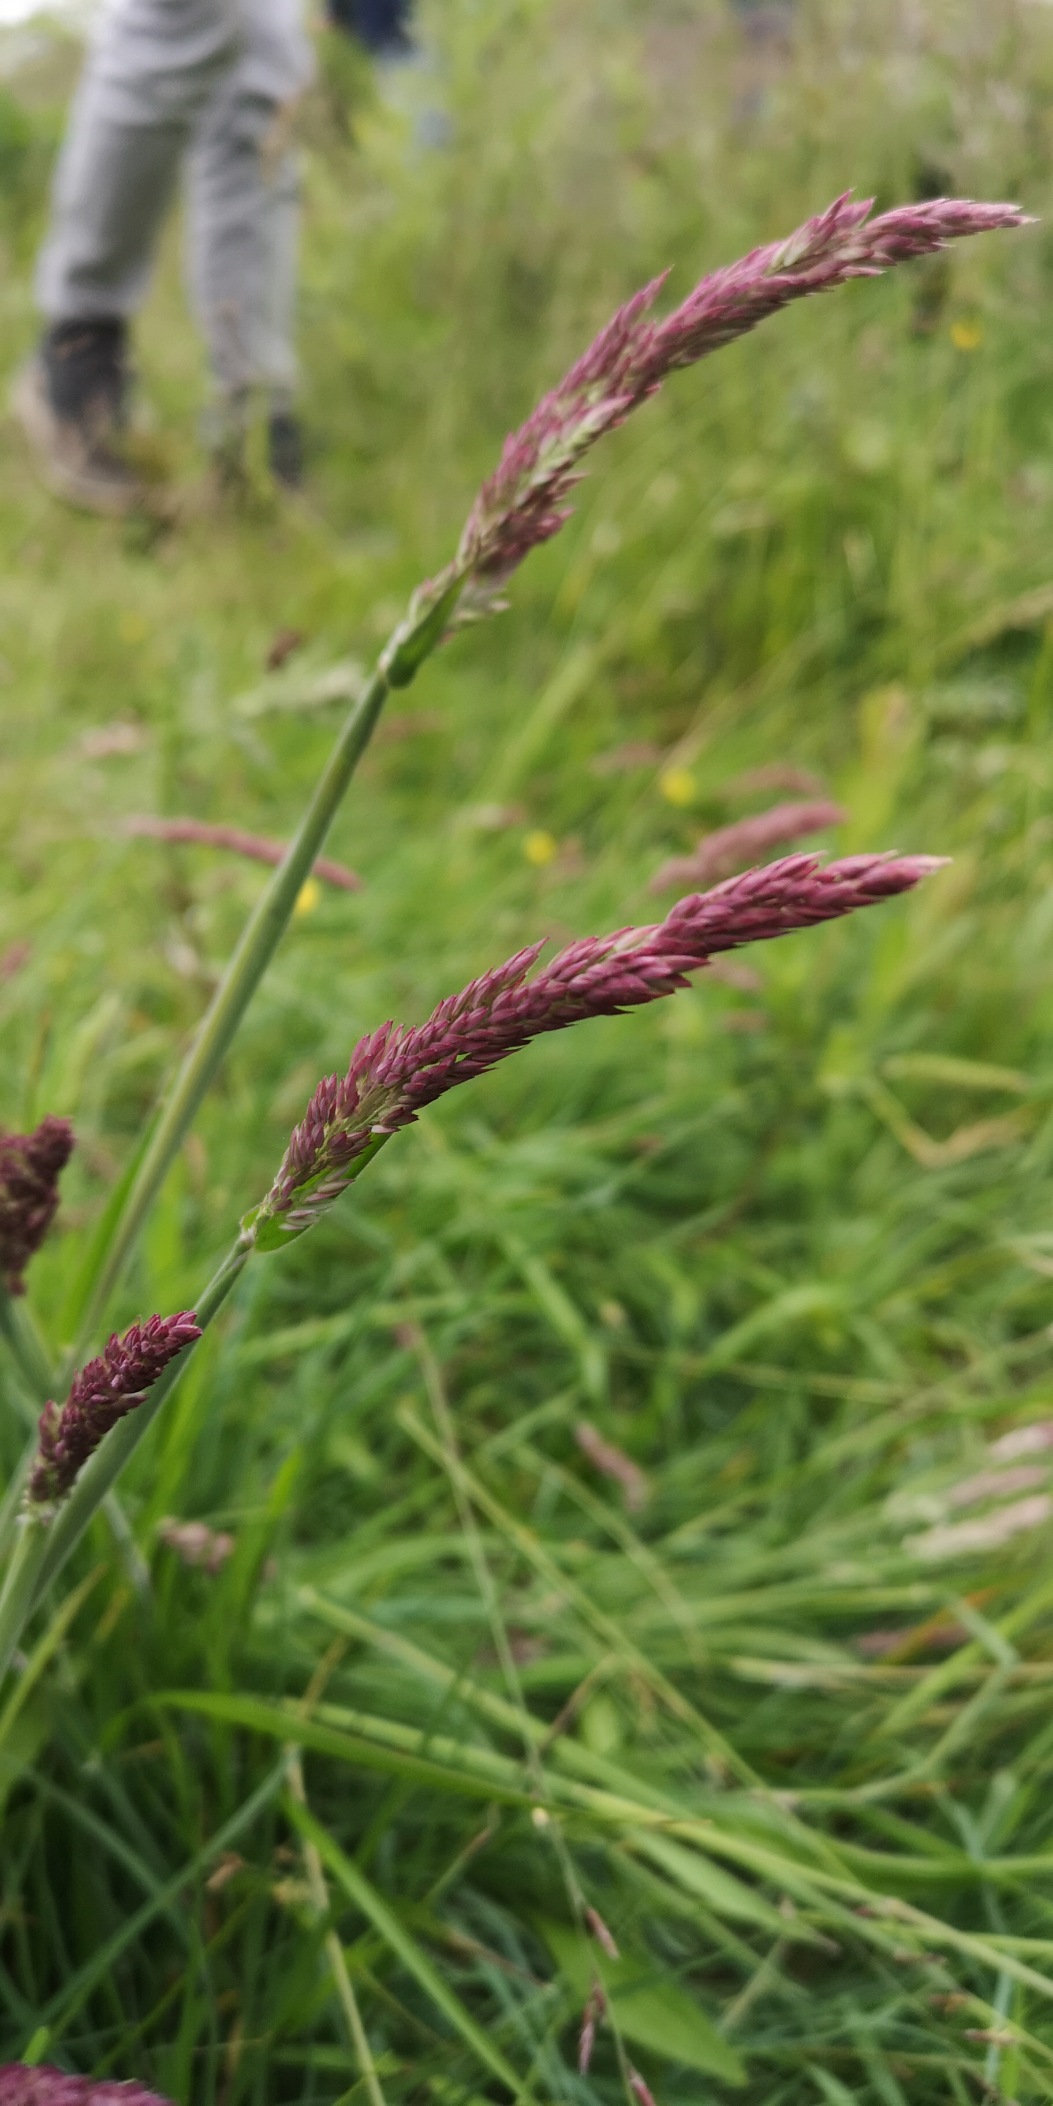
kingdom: Plantae
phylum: Tracheophyta
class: Liliopsida
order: Poales
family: Poaceae
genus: Holcus
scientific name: Holcus lanatus
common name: Fløjlsgræs
